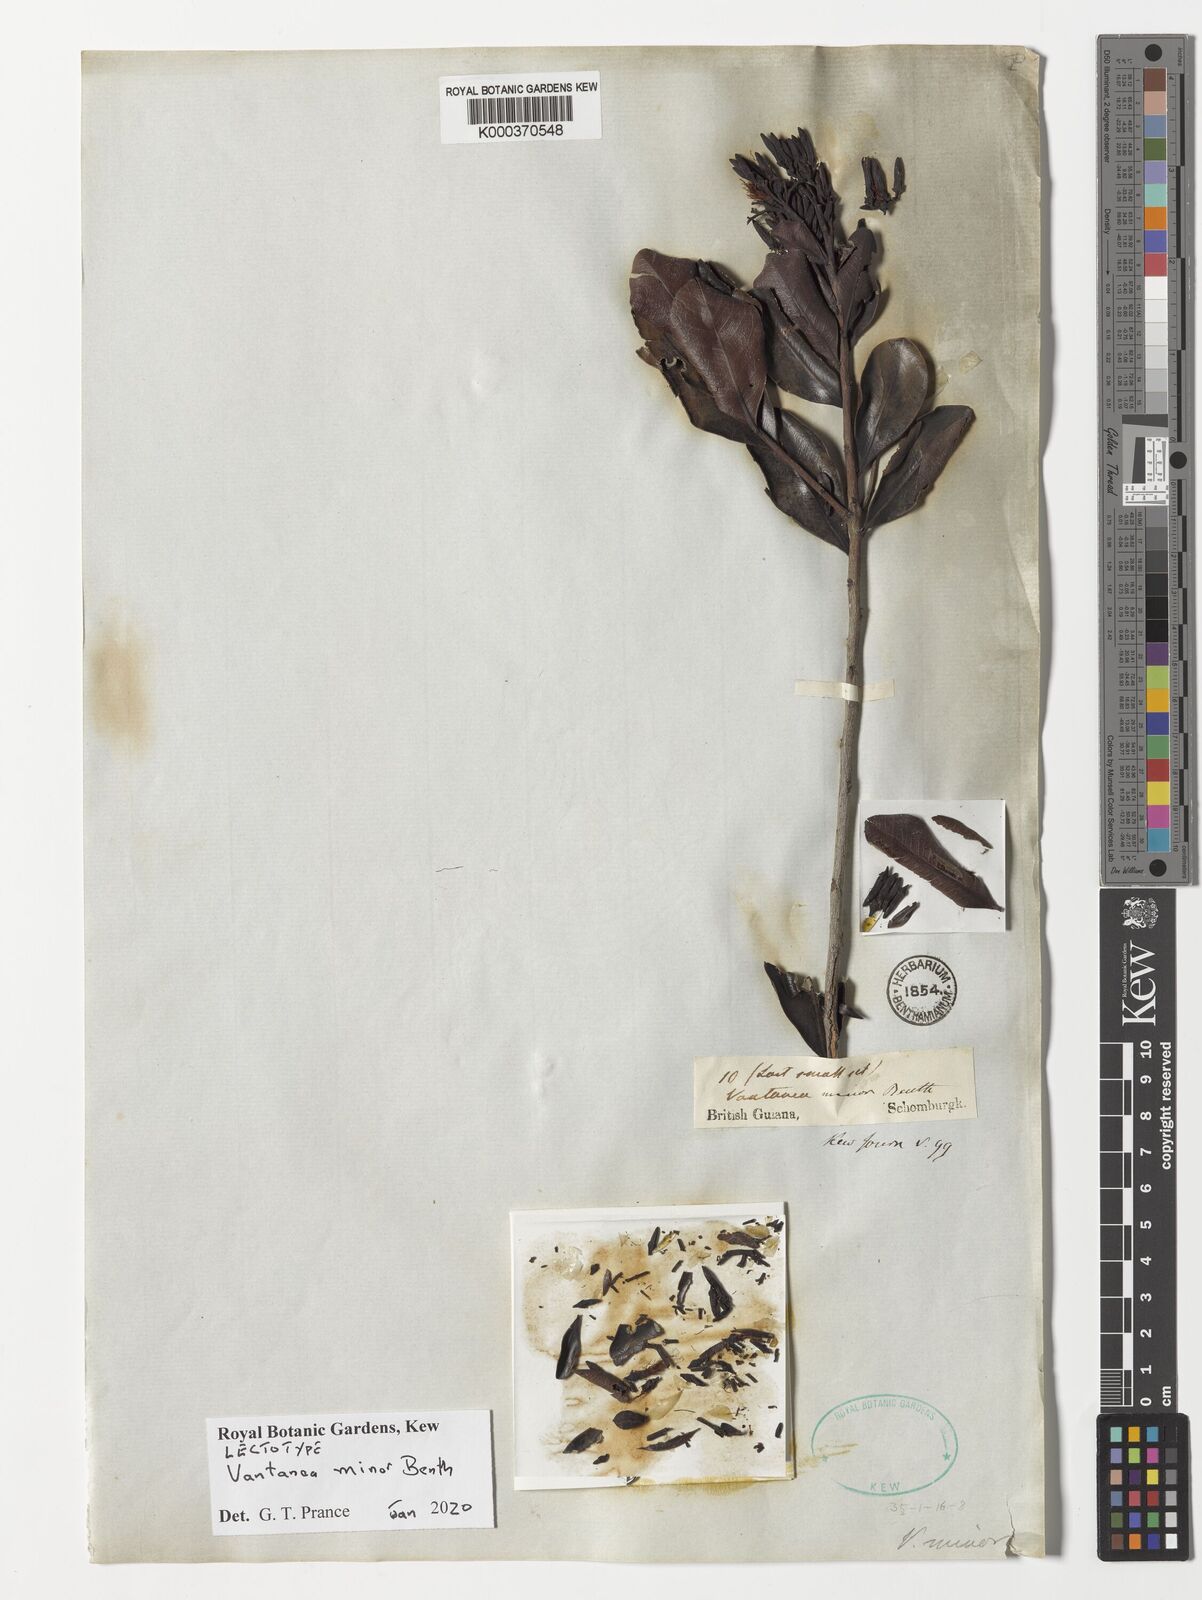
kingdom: Plantae
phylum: Tracheophyta
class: Magnoliopsida
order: Malpighiales
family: Humiriaceae
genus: Vantanea
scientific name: Vantanea minor
